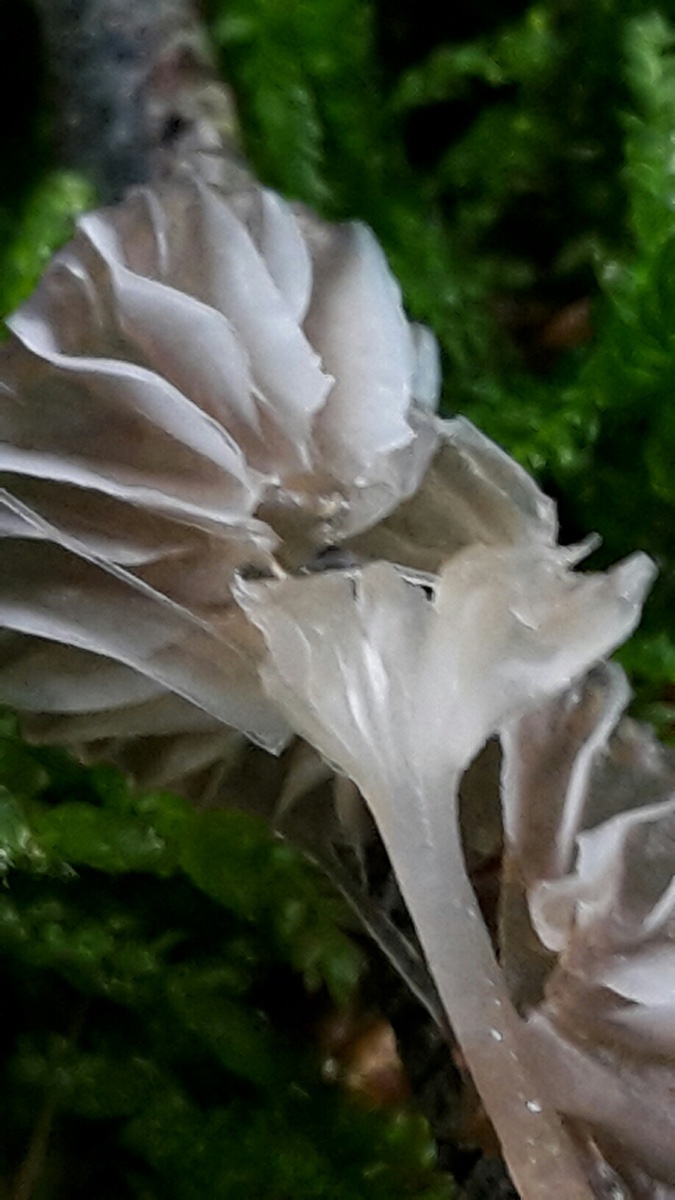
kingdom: Fungi
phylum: Basidiomycota
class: Agaricomycetes
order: Agaricales
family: Mycenaceae
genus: Mycena
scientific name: Mycena vulgaris
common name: klæbrig huesvamp
